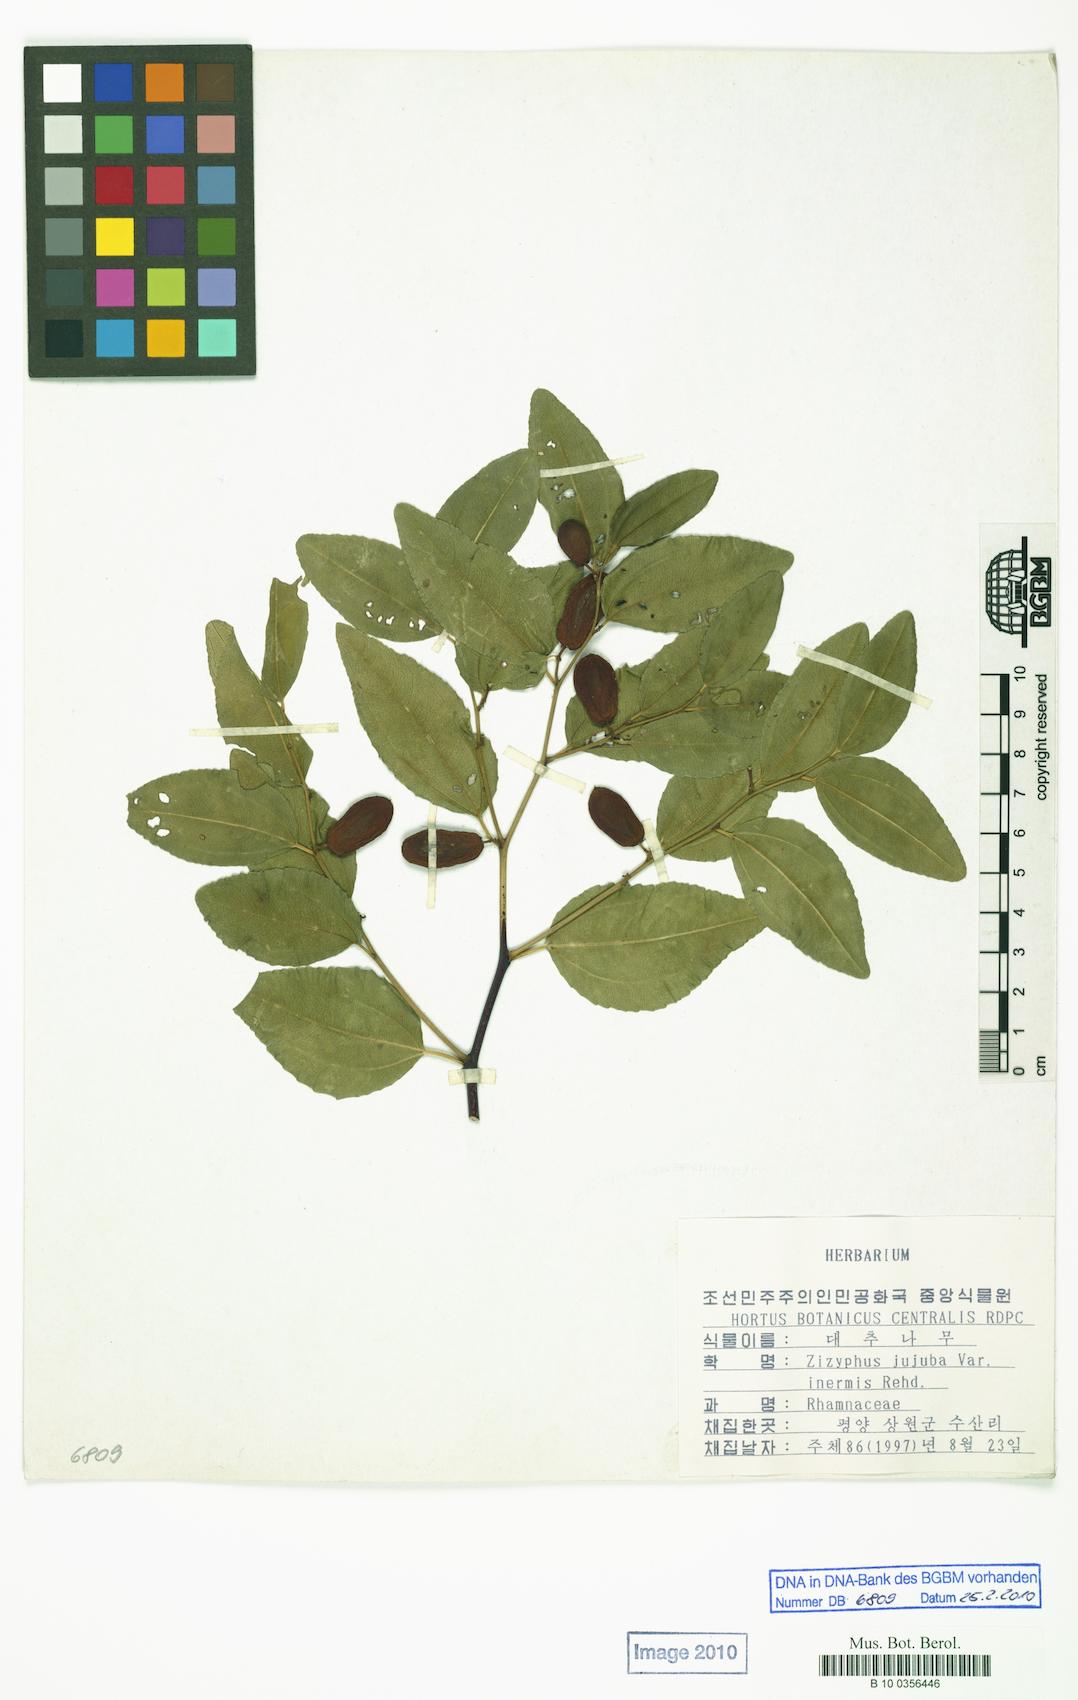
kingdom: Plantae
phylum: Tracheophyta
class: Magnoliopsida
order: Rosales
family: Rhamnaceae
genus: Ziziphus
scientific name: Ziziphus jujuba
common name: Jujube red date
